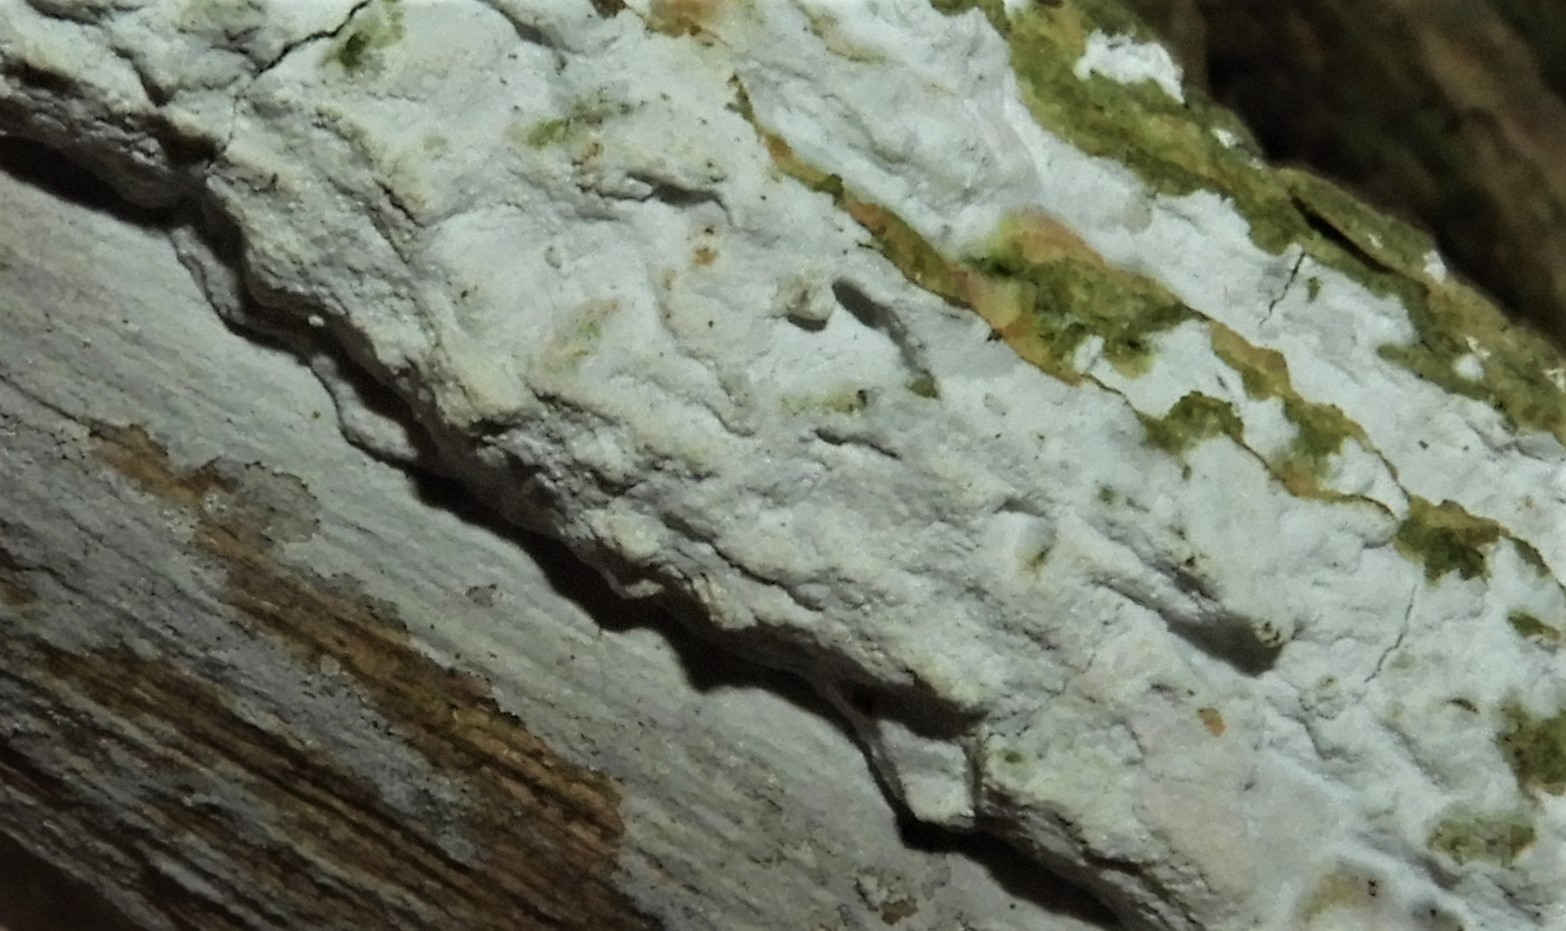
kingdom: Fungi
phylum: Basidiomycota
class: Agaricomycetes
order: Corticiales
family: Corticiaceae
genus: Lyomyces
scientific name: Lyomyces sambuci
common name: almindelig hyldehinde
